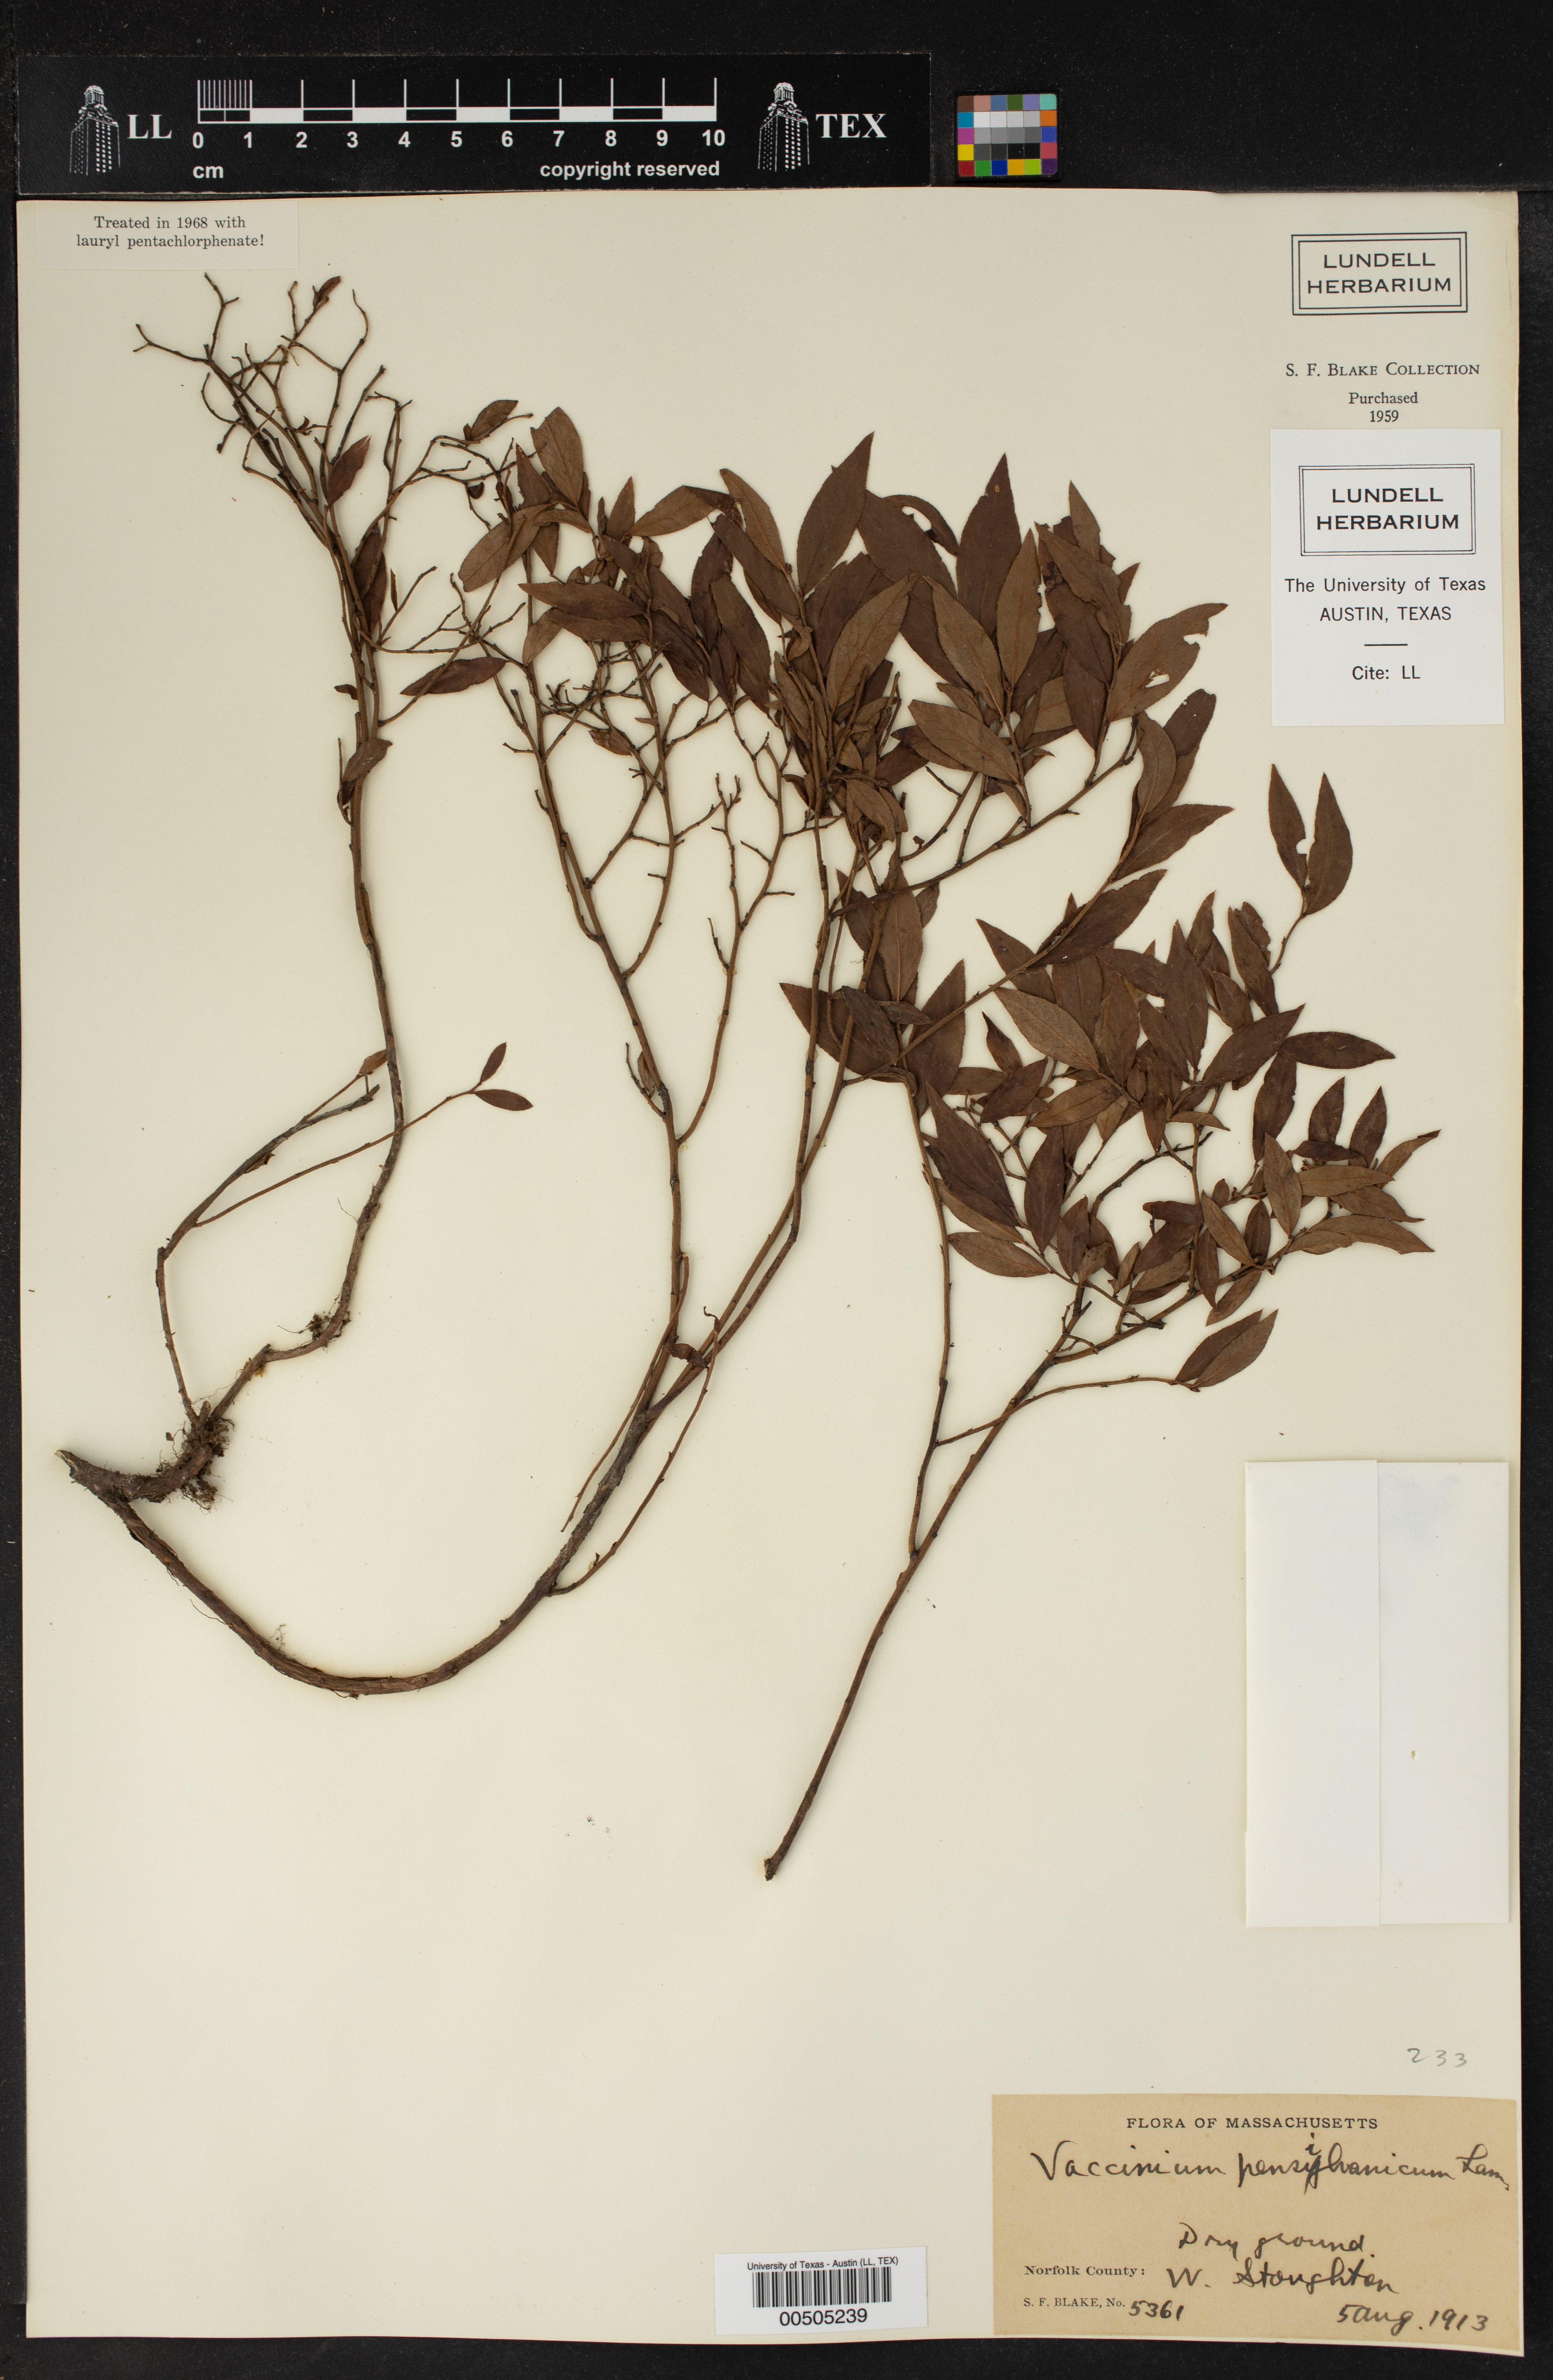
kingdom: Plantae
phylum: Tracheophyta
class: Magnoliopsida
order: Ericales
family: Ericaceae
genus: Vaccinium
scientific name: Vaccinium angustifolium
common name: Early lowbush blueberry
